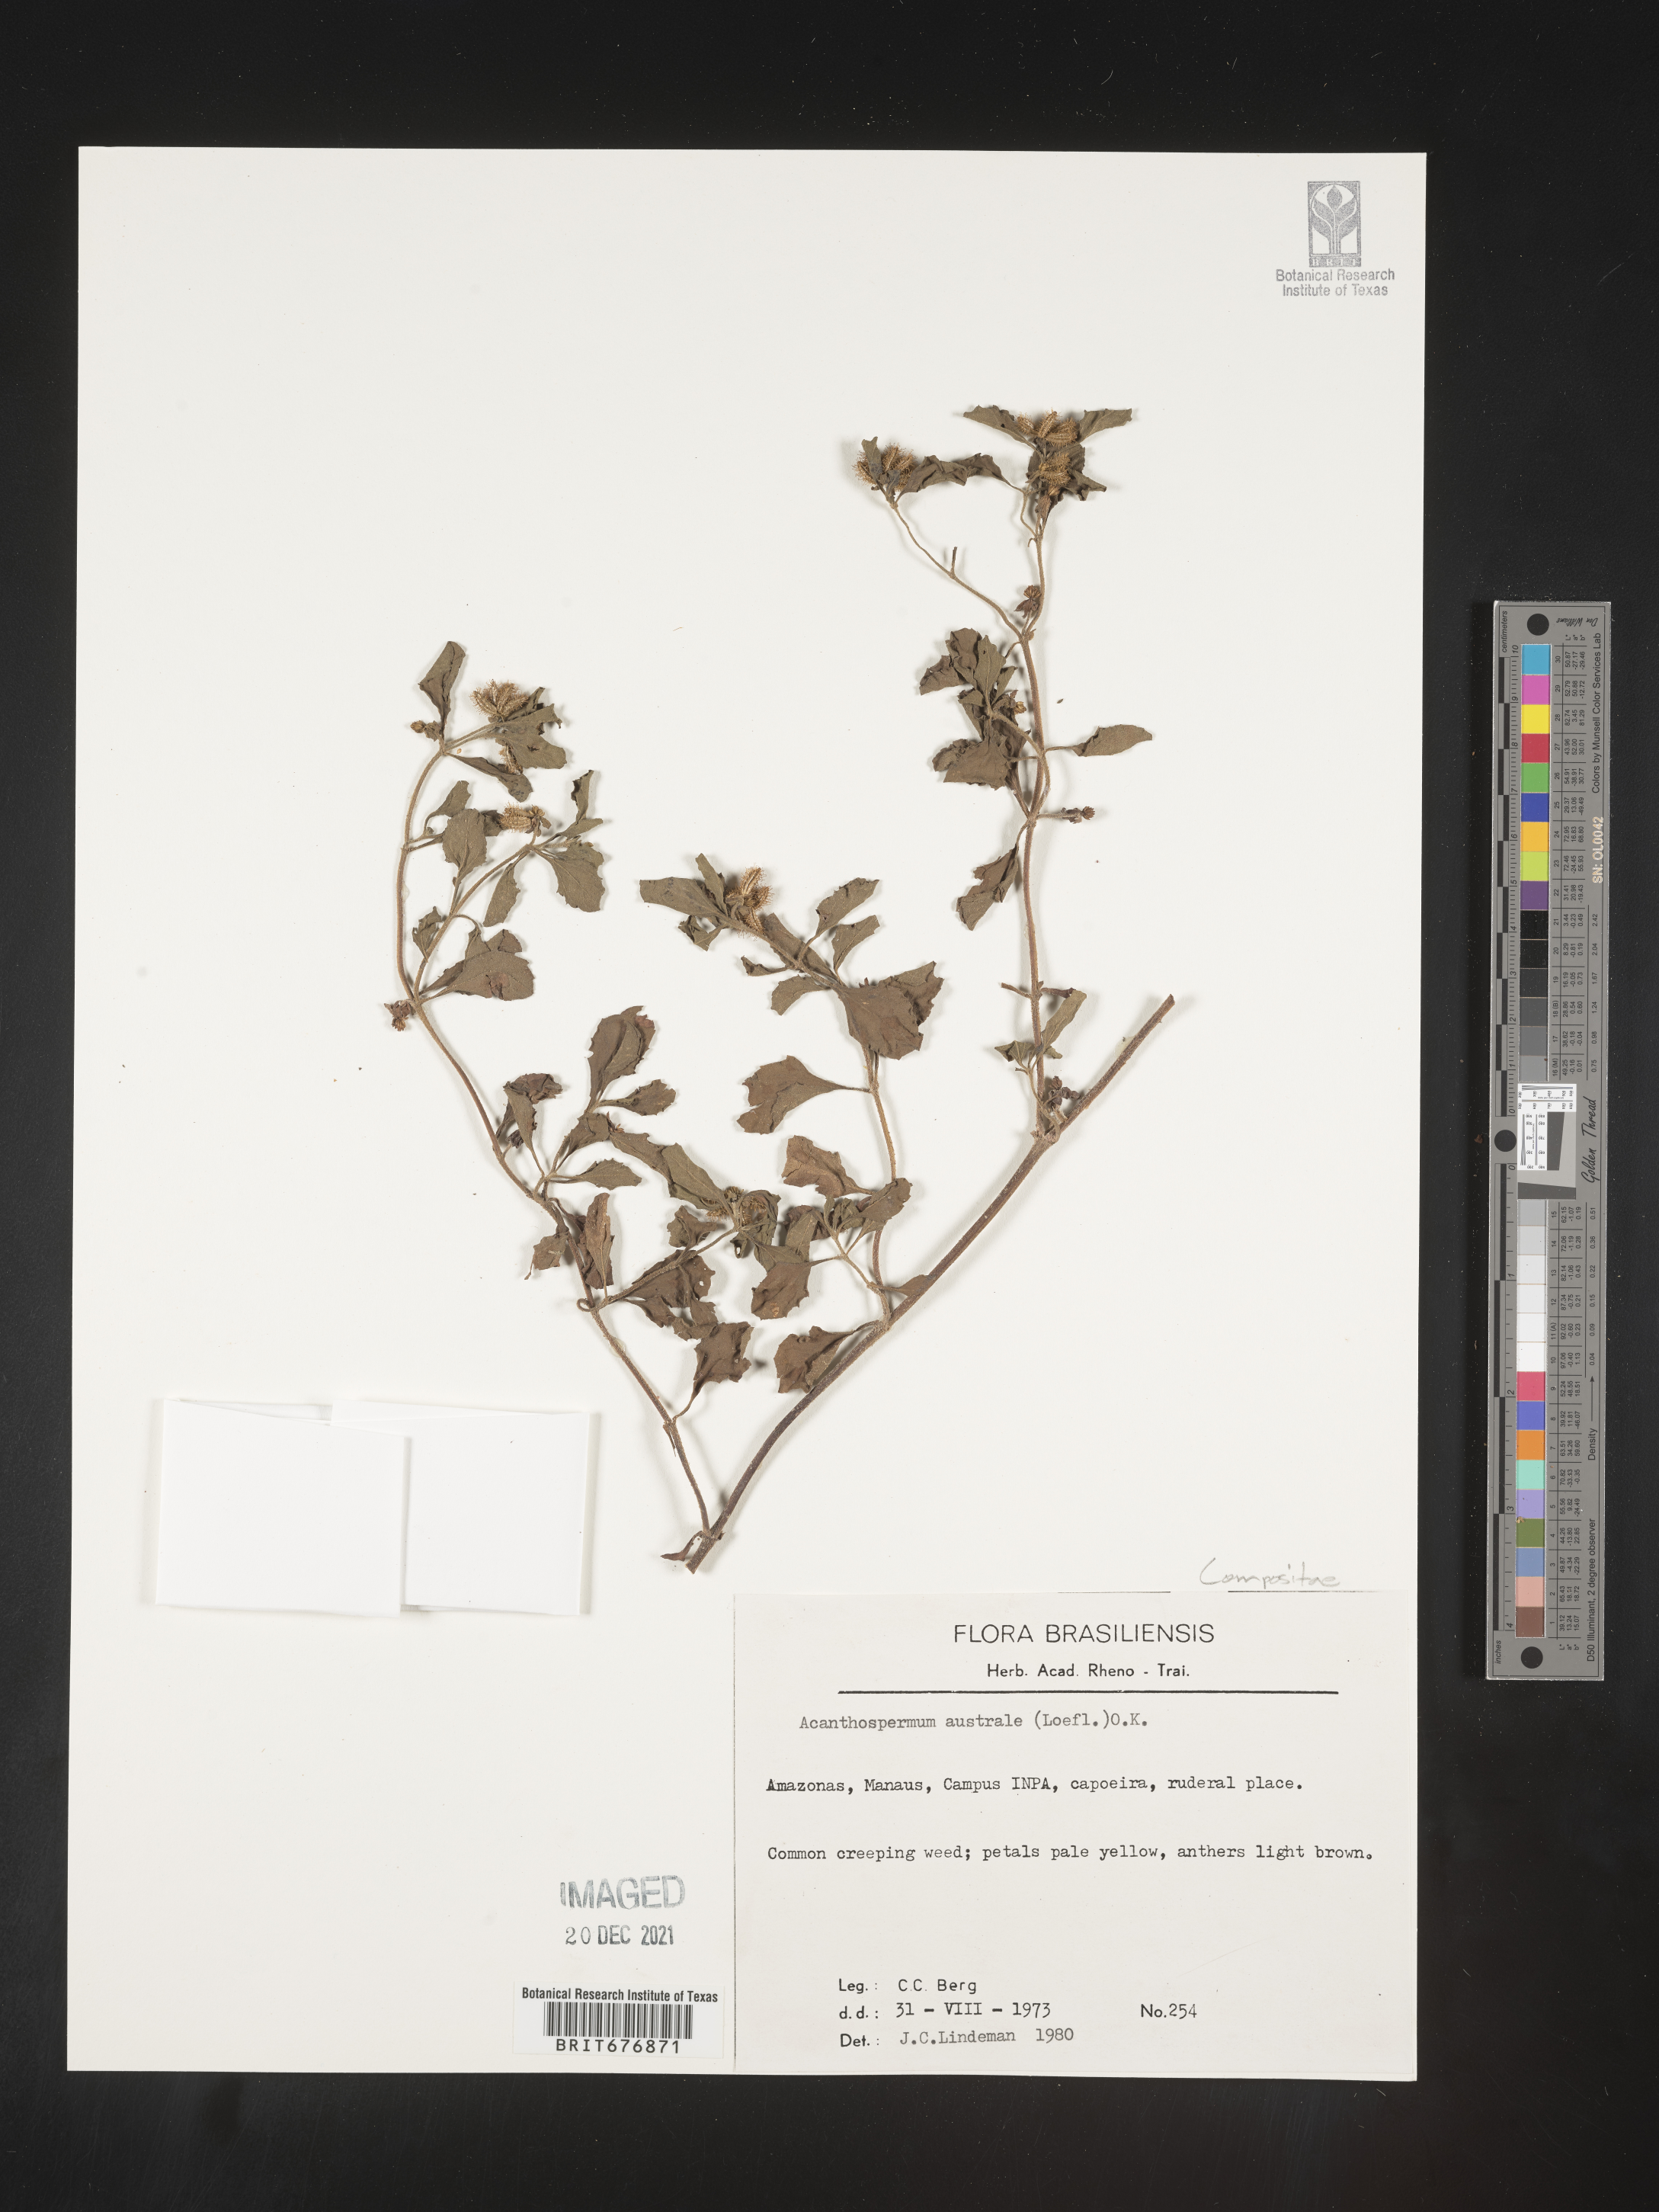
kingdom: Plantae
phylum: Tracheophyta
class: Magnoliopsida
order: Asterales
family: Asteraceae
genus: Acanthospermum
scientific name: Acanthospermum
